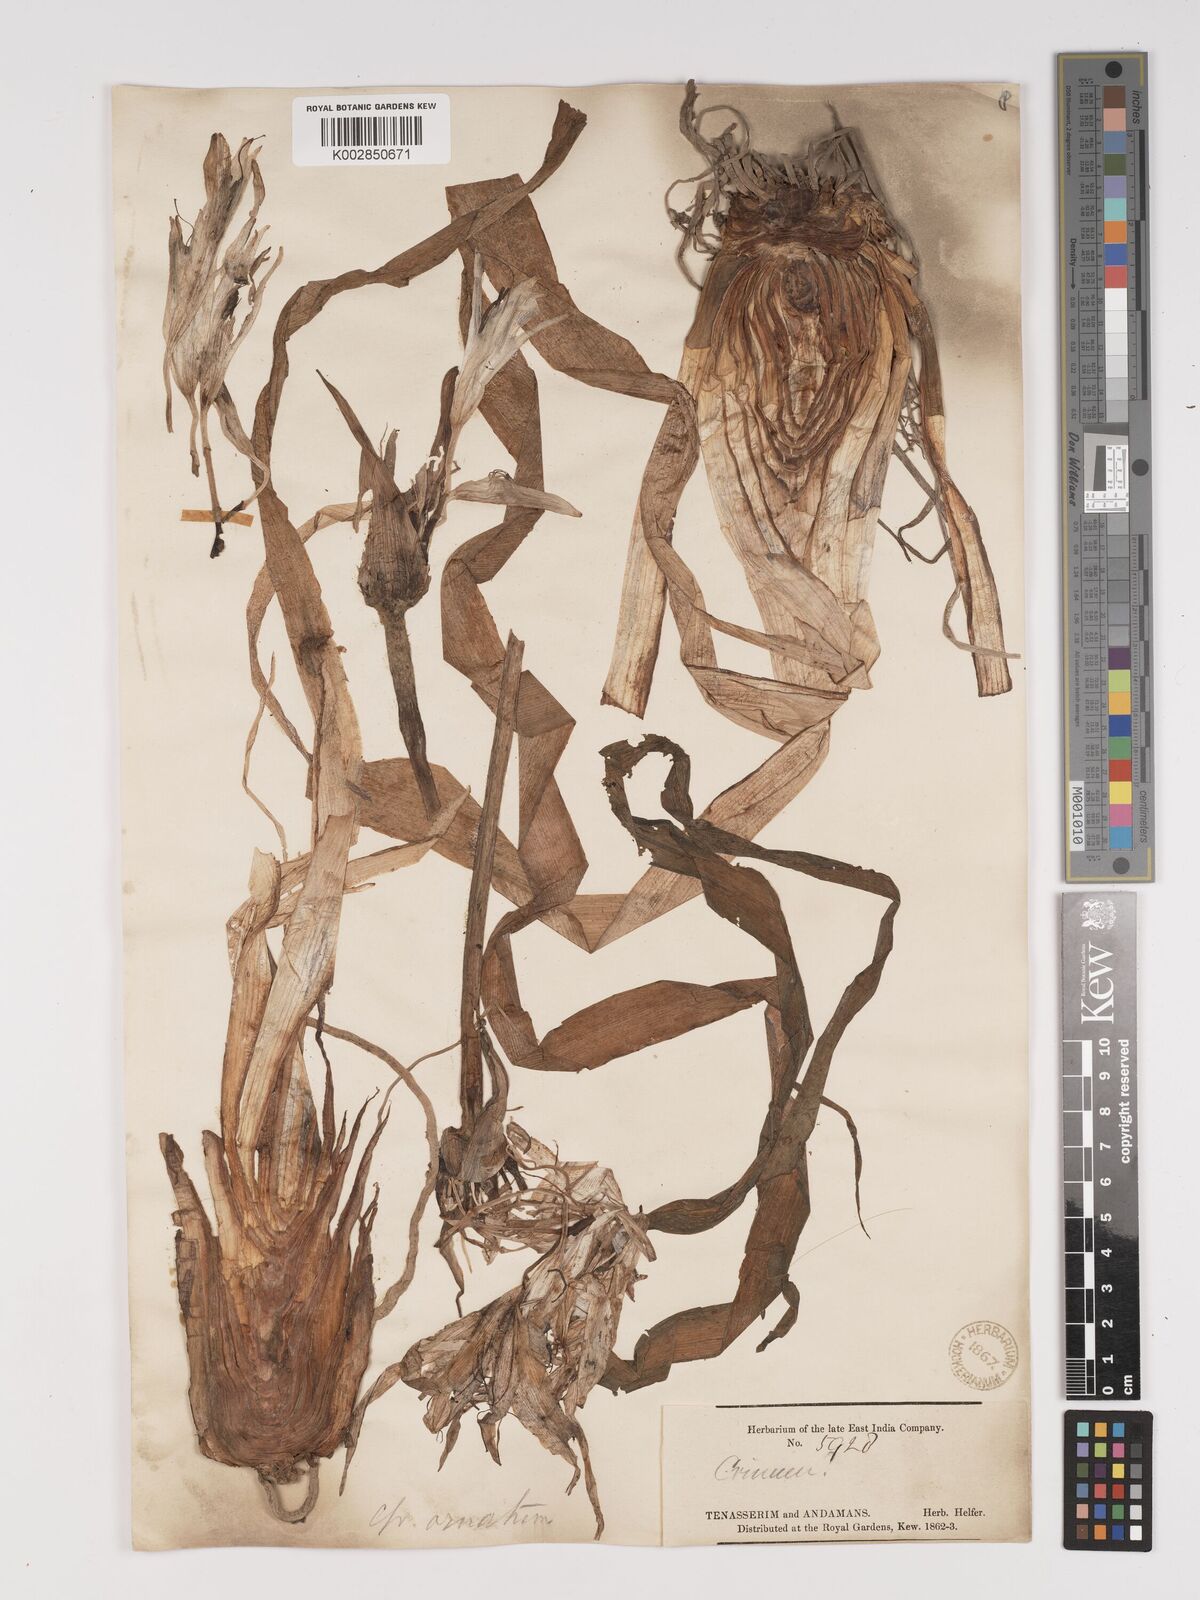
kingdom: Plantae
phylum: Tracheophyta
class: Liliopsida
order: Asparagales
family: Amaryllidaceae
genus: Crinum
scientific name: Crinum
